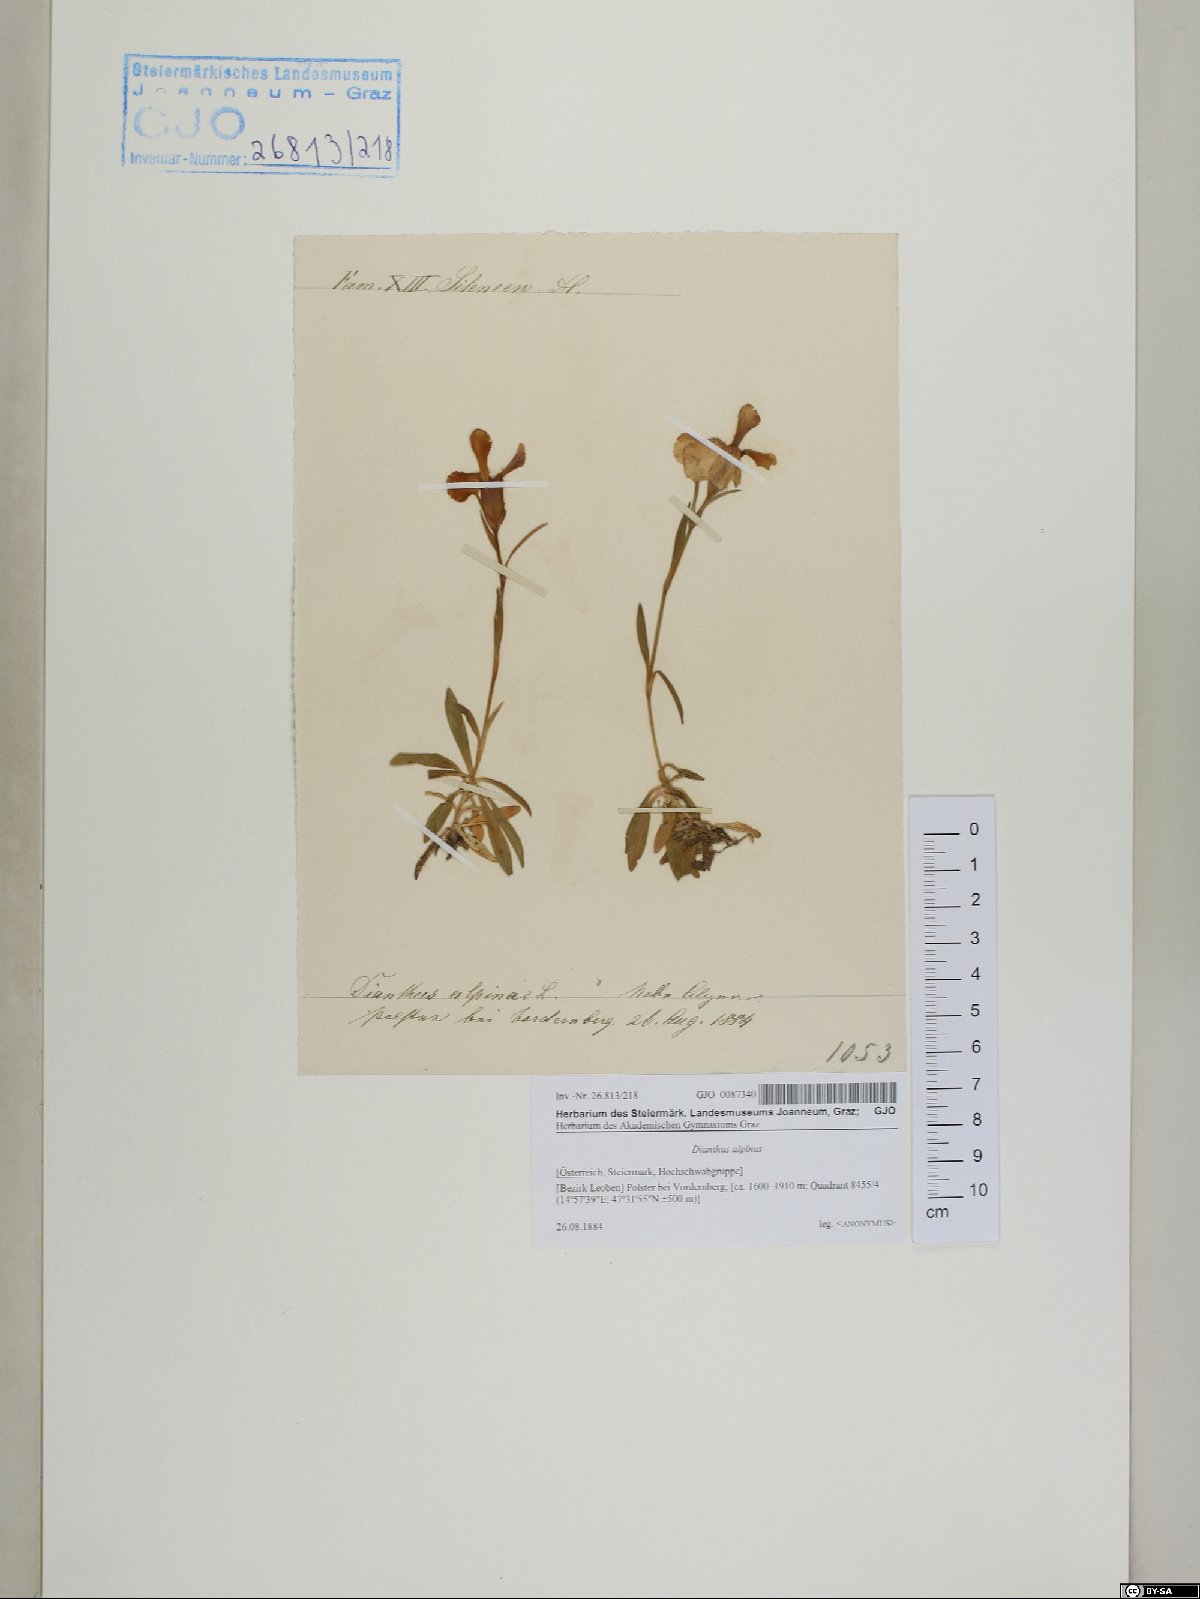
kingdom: Plantae
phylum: Tracheophyta
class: Magnoliopsida
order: Caryophyllales
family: Caryophyllaceae
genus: Dianthus
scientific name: Dianthus alpinus
